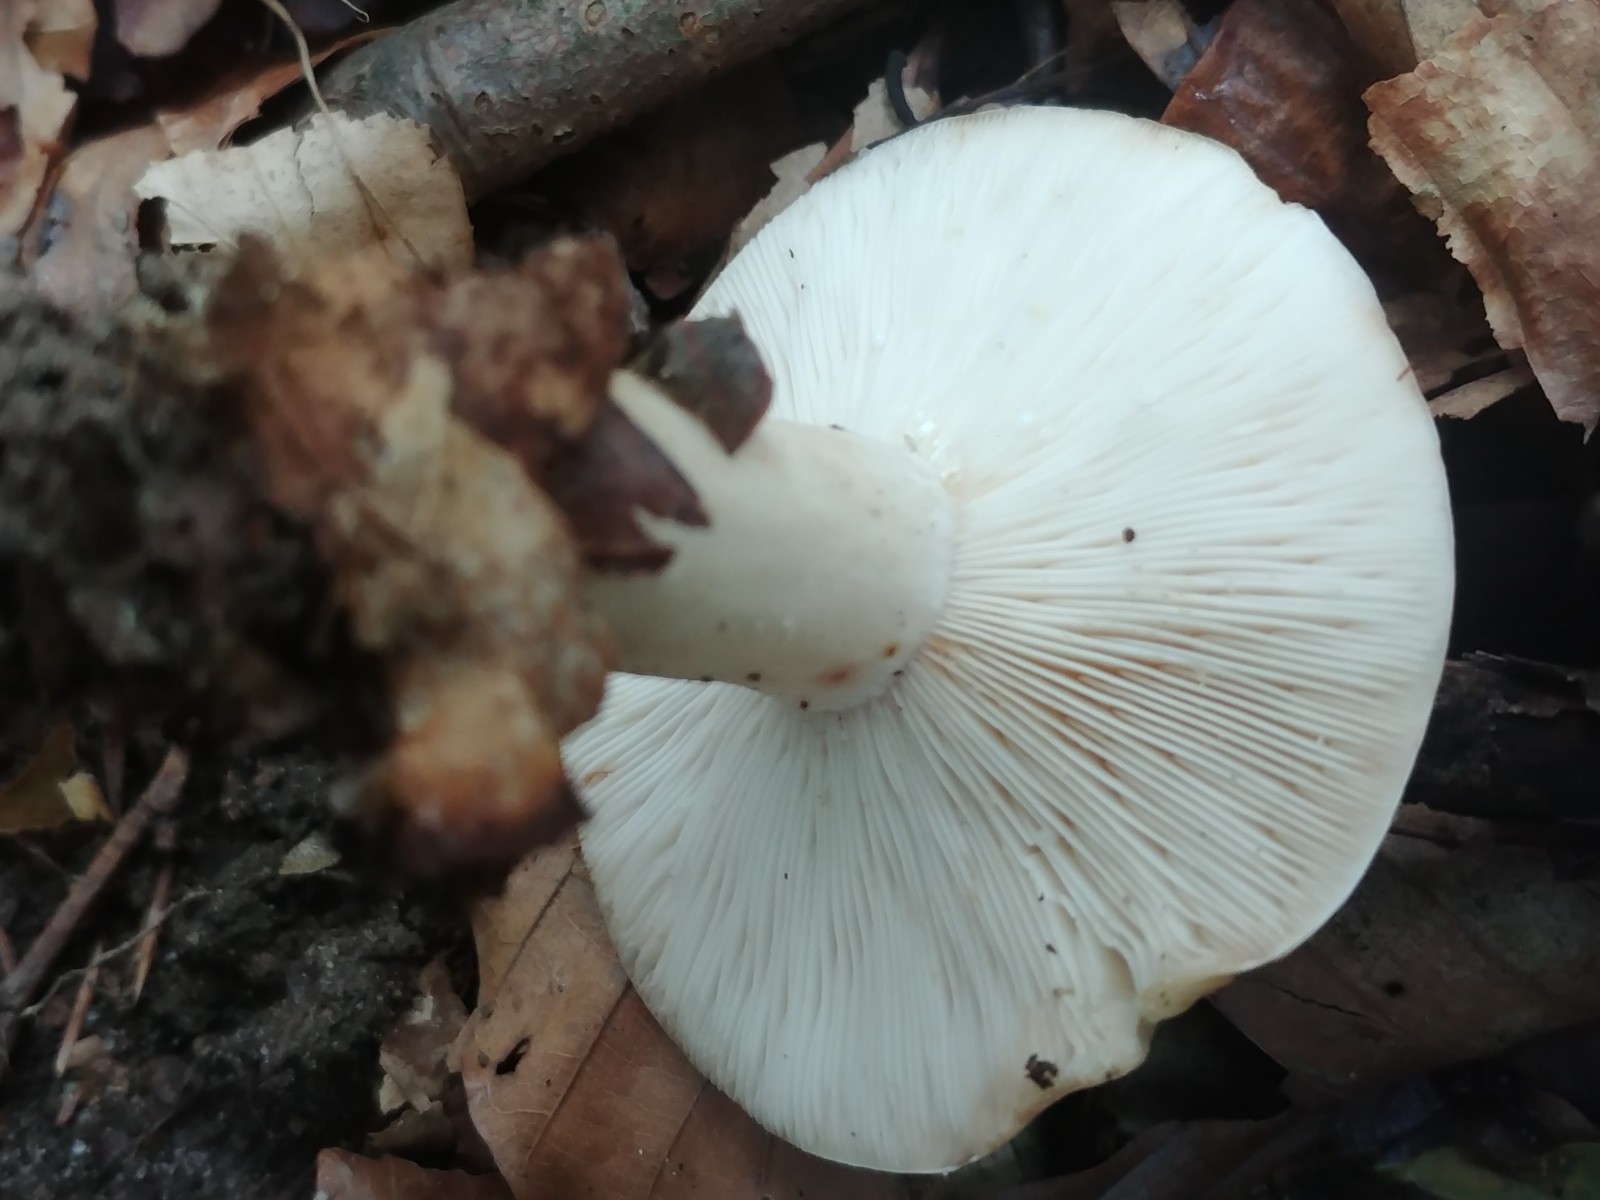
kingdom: Fungi
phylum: Basidiomycota
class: Agaricomycetes
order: Russulales
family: Russulaceae
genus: Lactarius
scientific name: Lactarius pallidus
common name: bleg mælkehat
